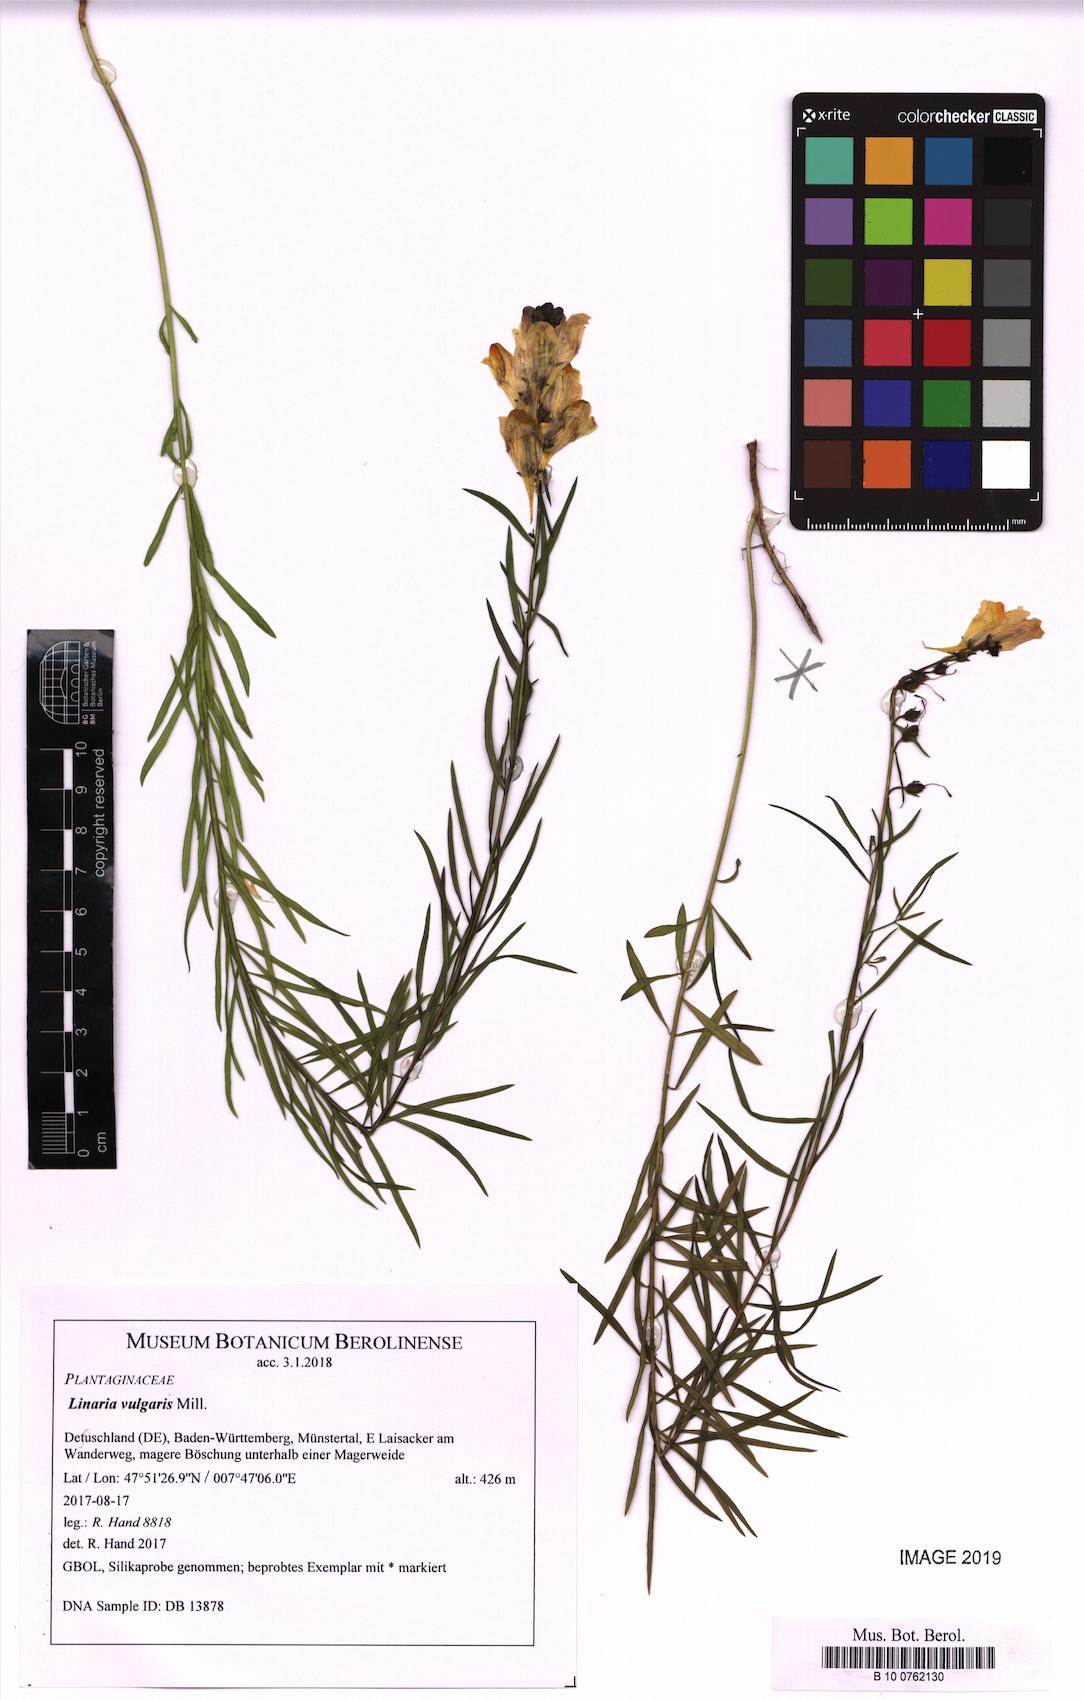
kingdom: Plantae
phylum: Tracheophyta
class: Magnoliopsida
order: Lamiales
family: Plantaginaceae
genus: Linaria
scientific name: Linaria vulgaris
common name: Butter and eggs
